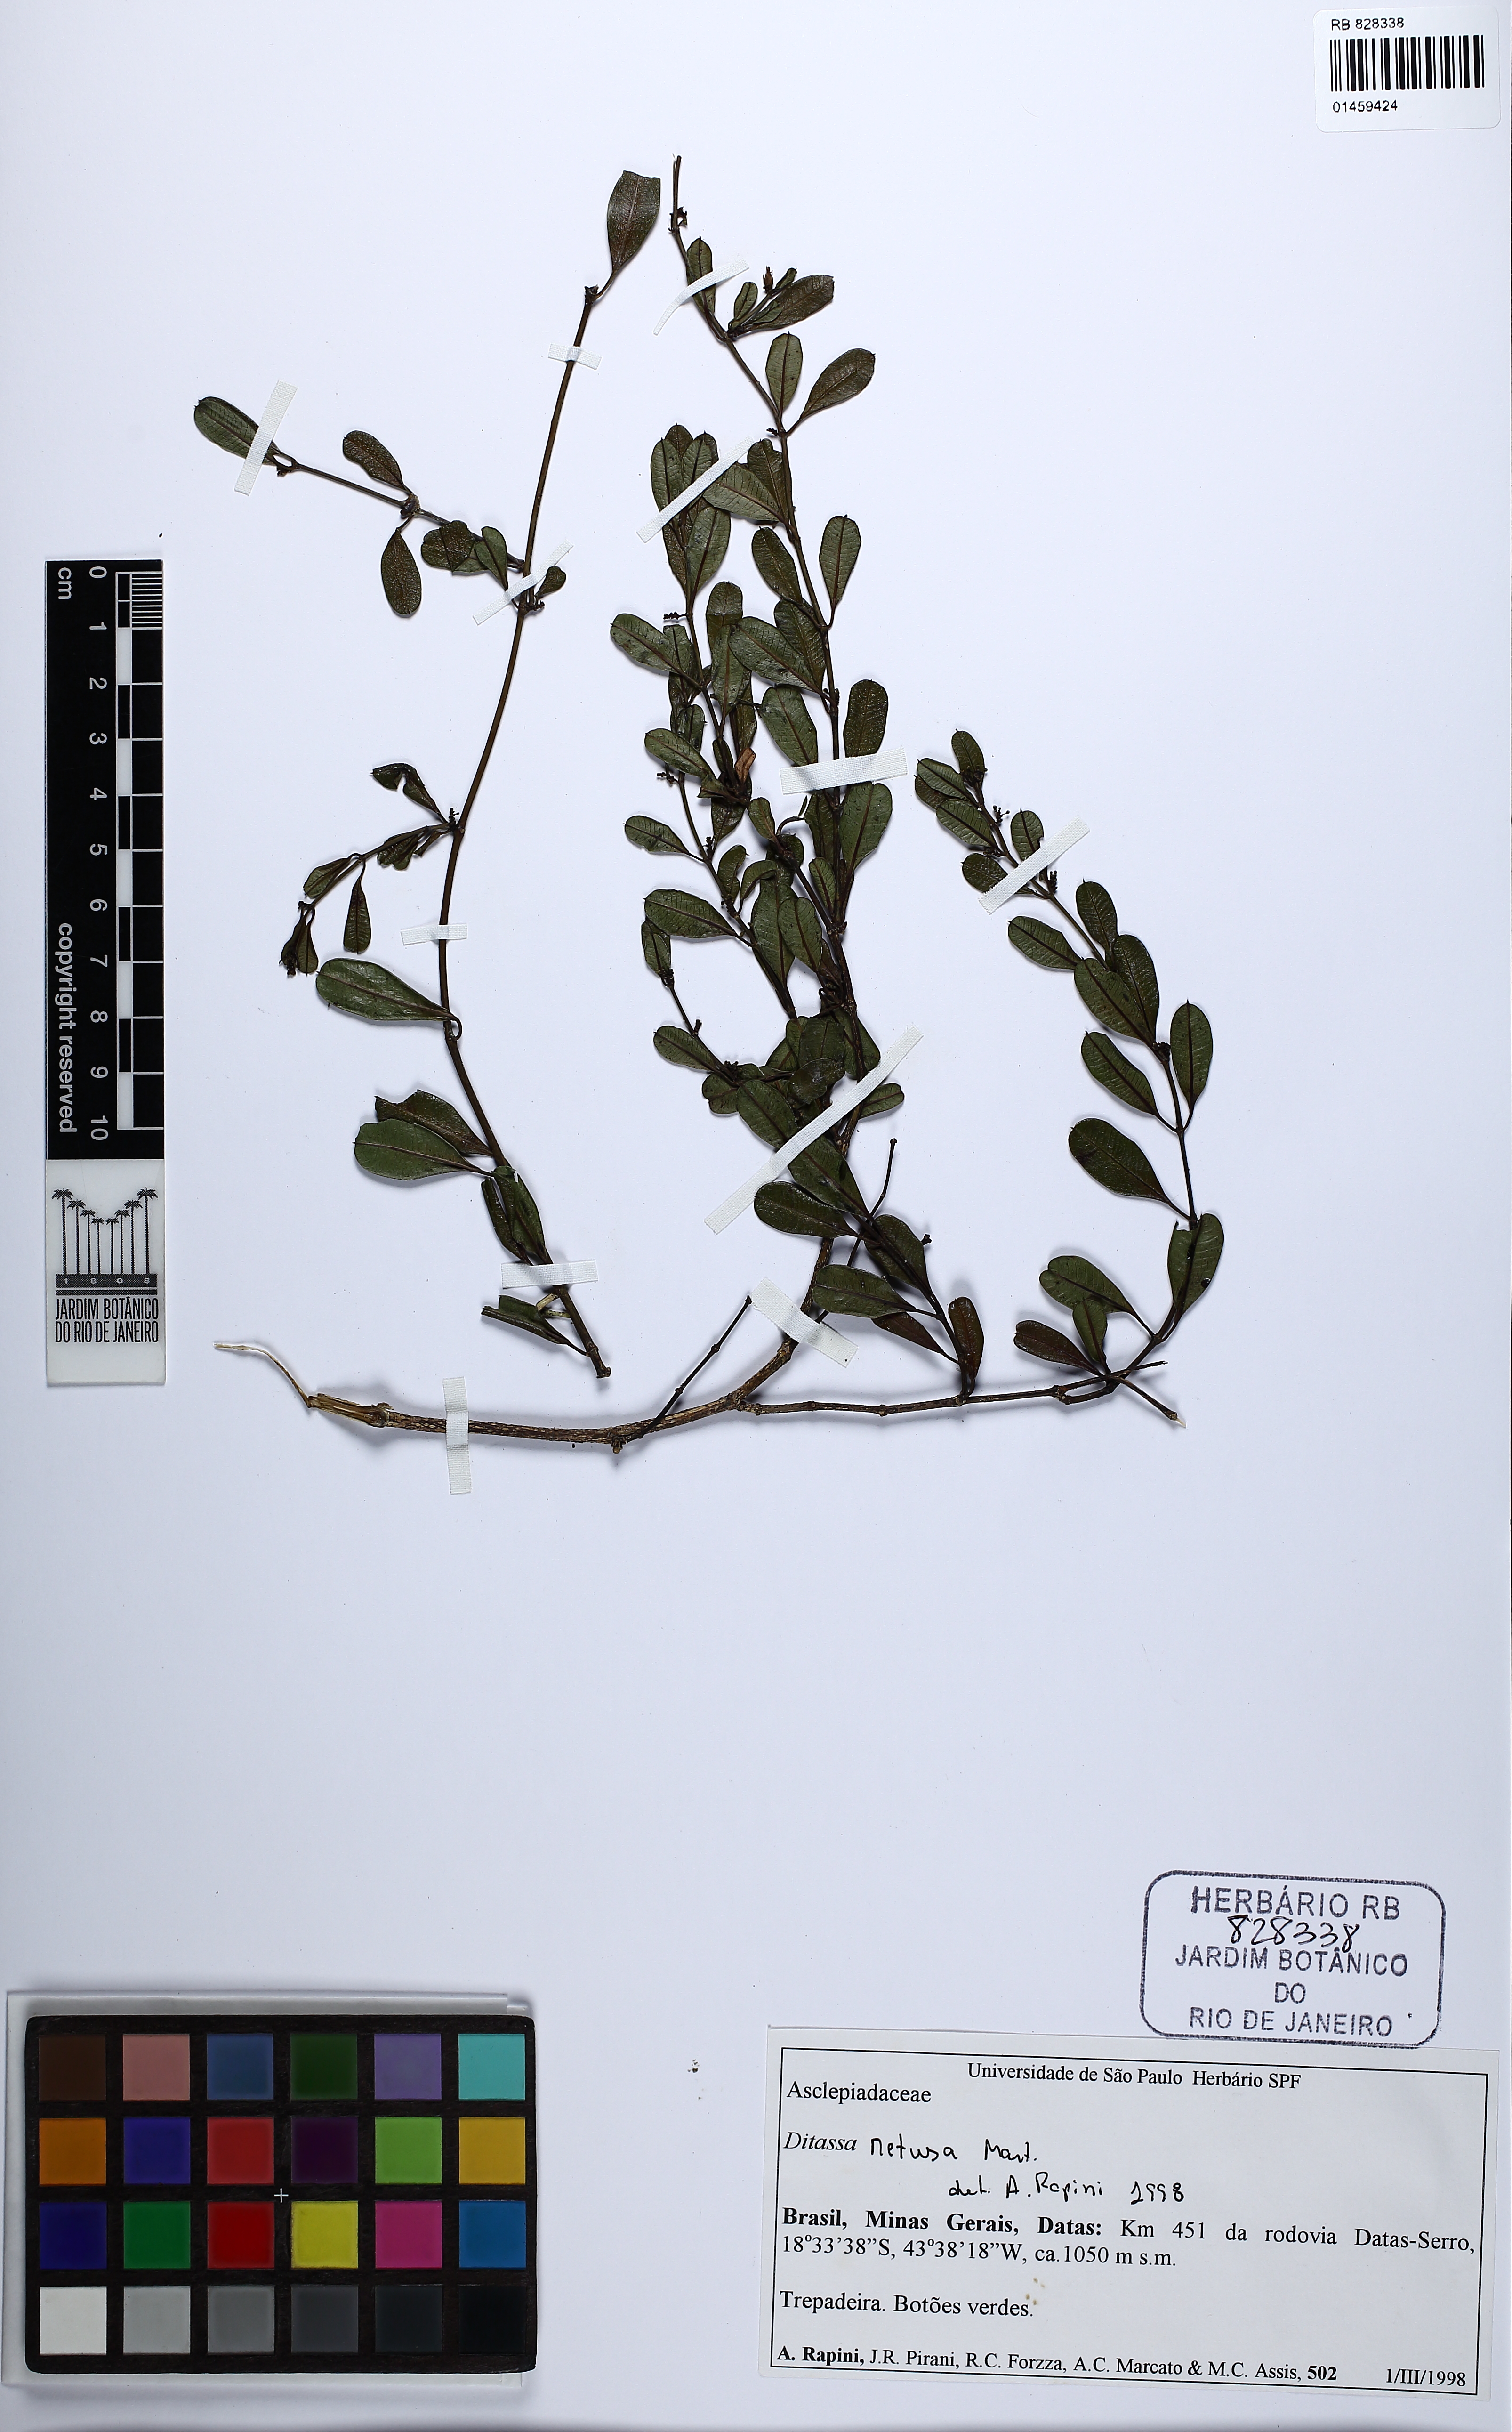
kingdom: Plantae
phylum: Tracheophyta
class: Magnoliopsida
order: Gentianales
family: Apocynaceae
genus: Ditassa
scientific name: Ditassa retusa
